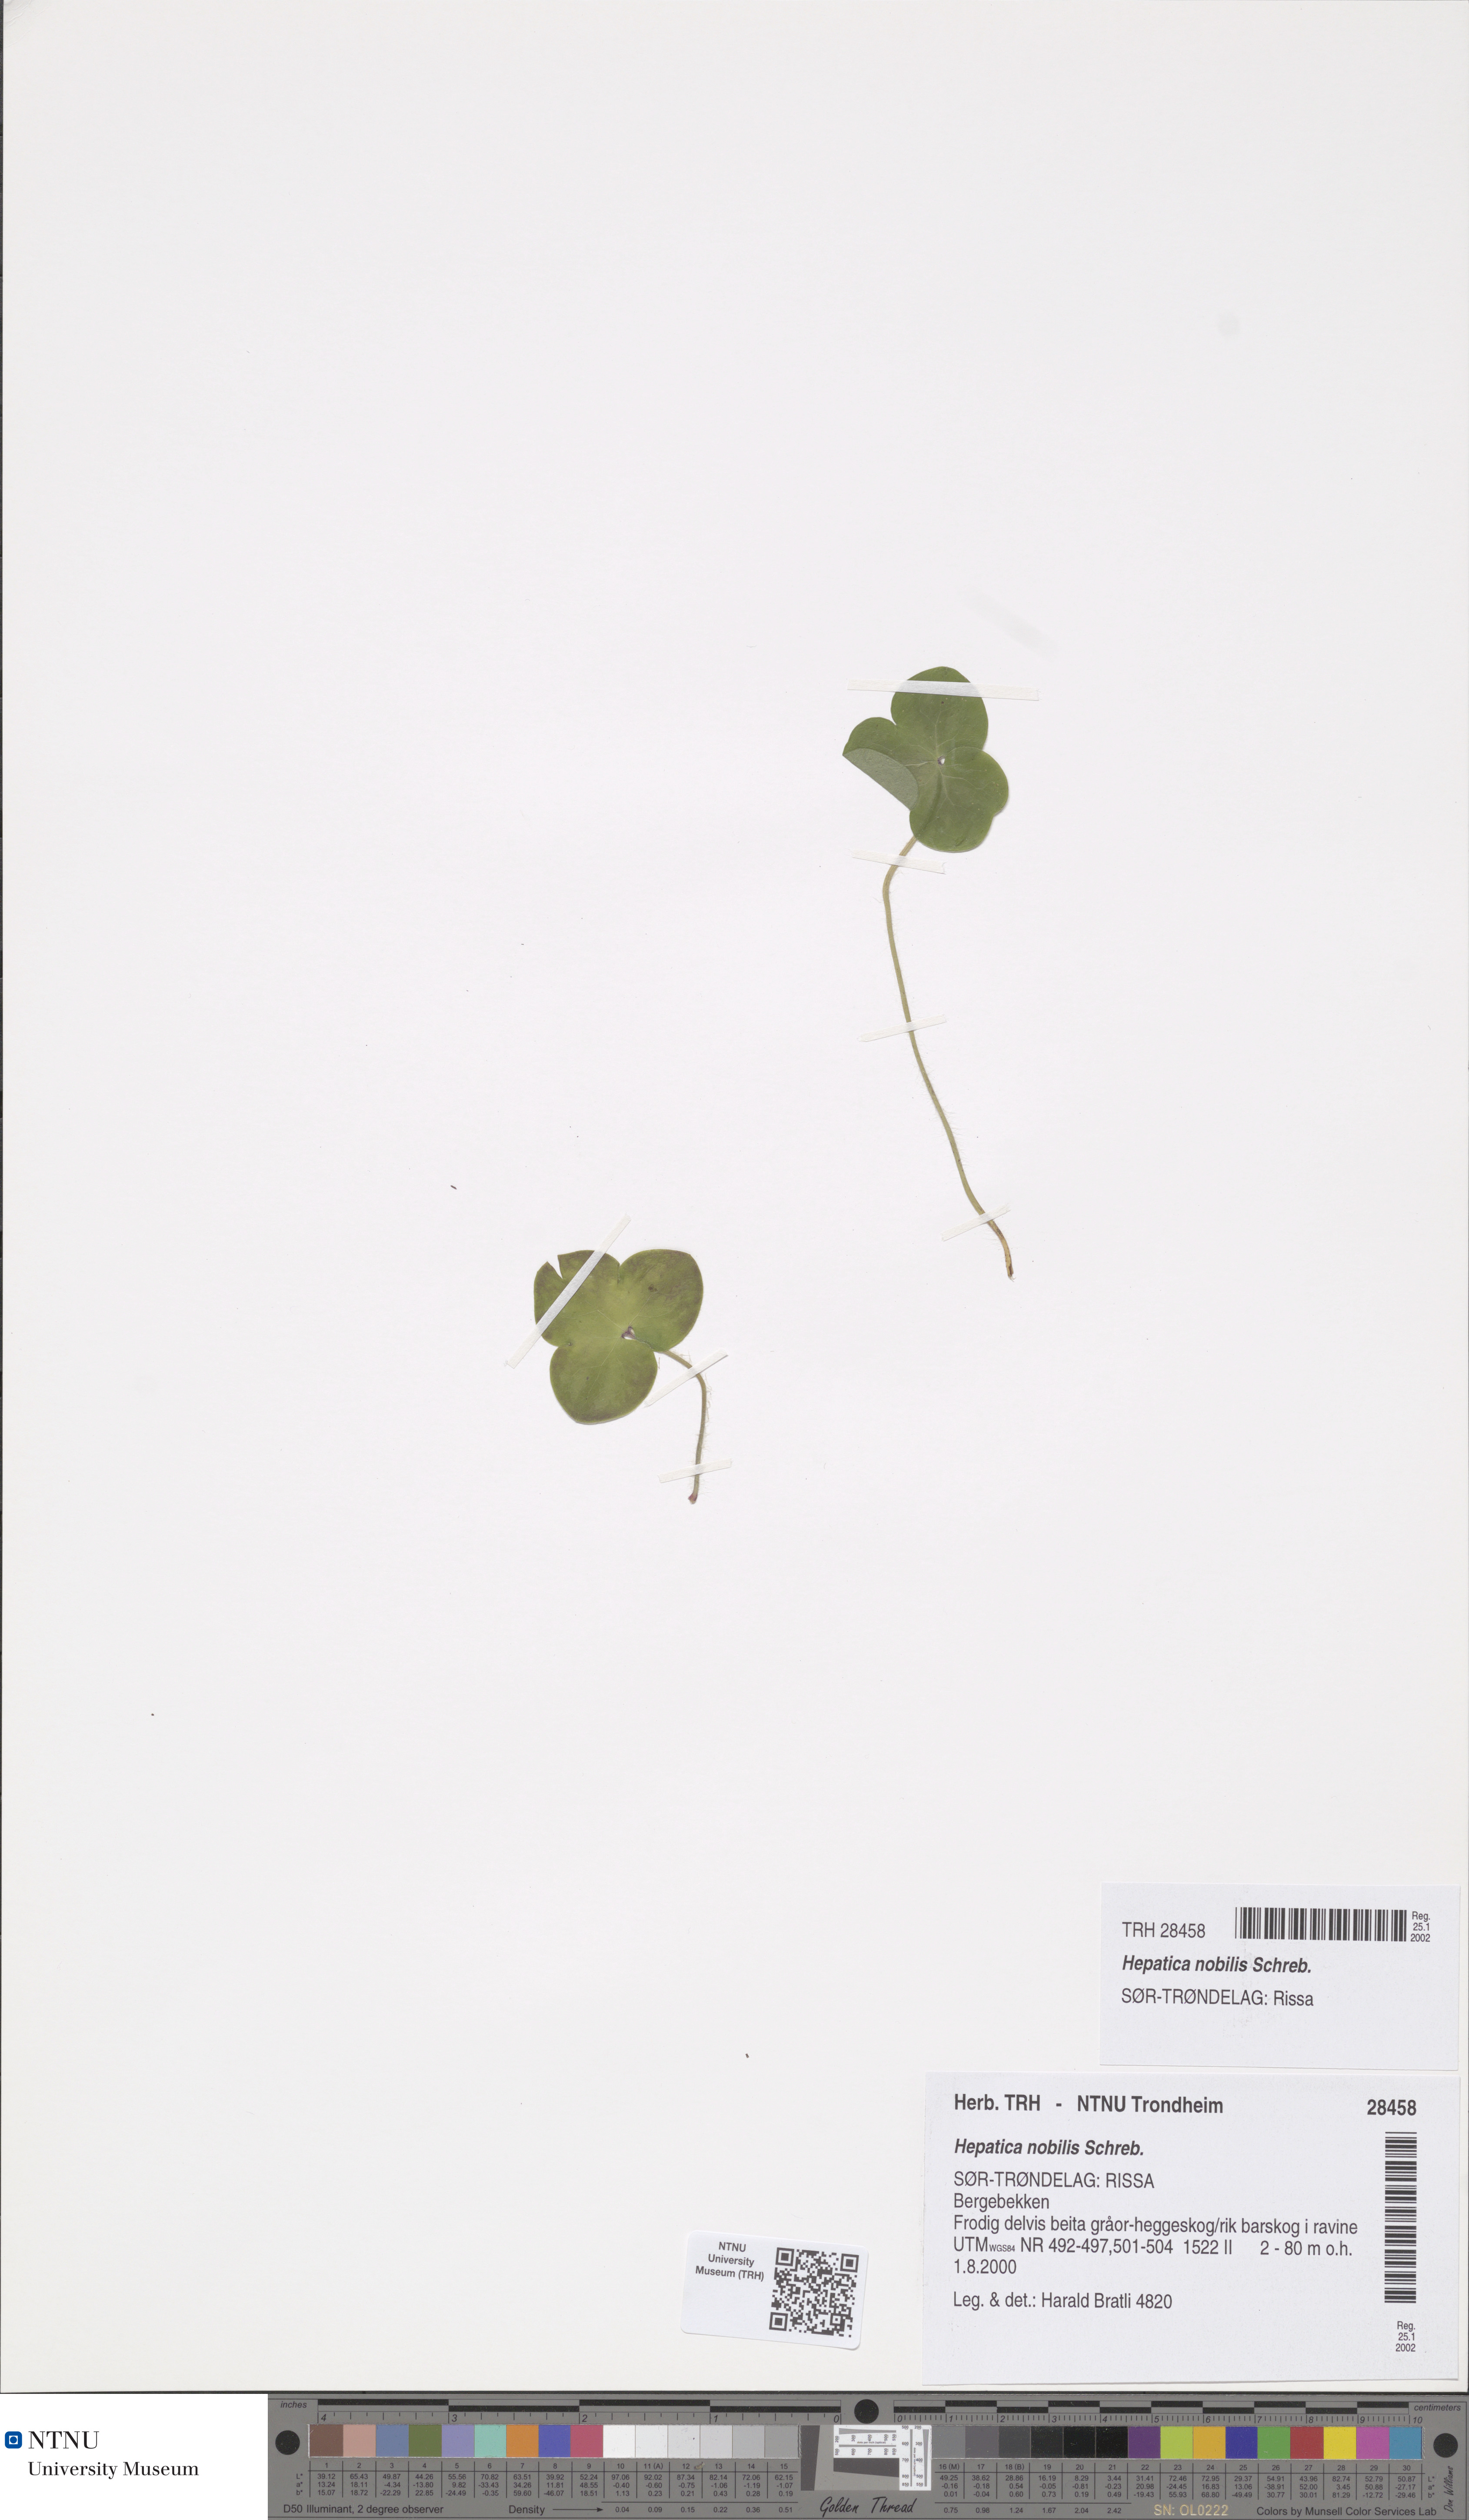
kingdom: Plantae
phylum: Tracheophyta
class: Magnoliopsida
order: Ranunculales
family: Ranunculaceae
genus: Hepatica
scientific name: Hepatica nobilis
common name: Liverleaf
